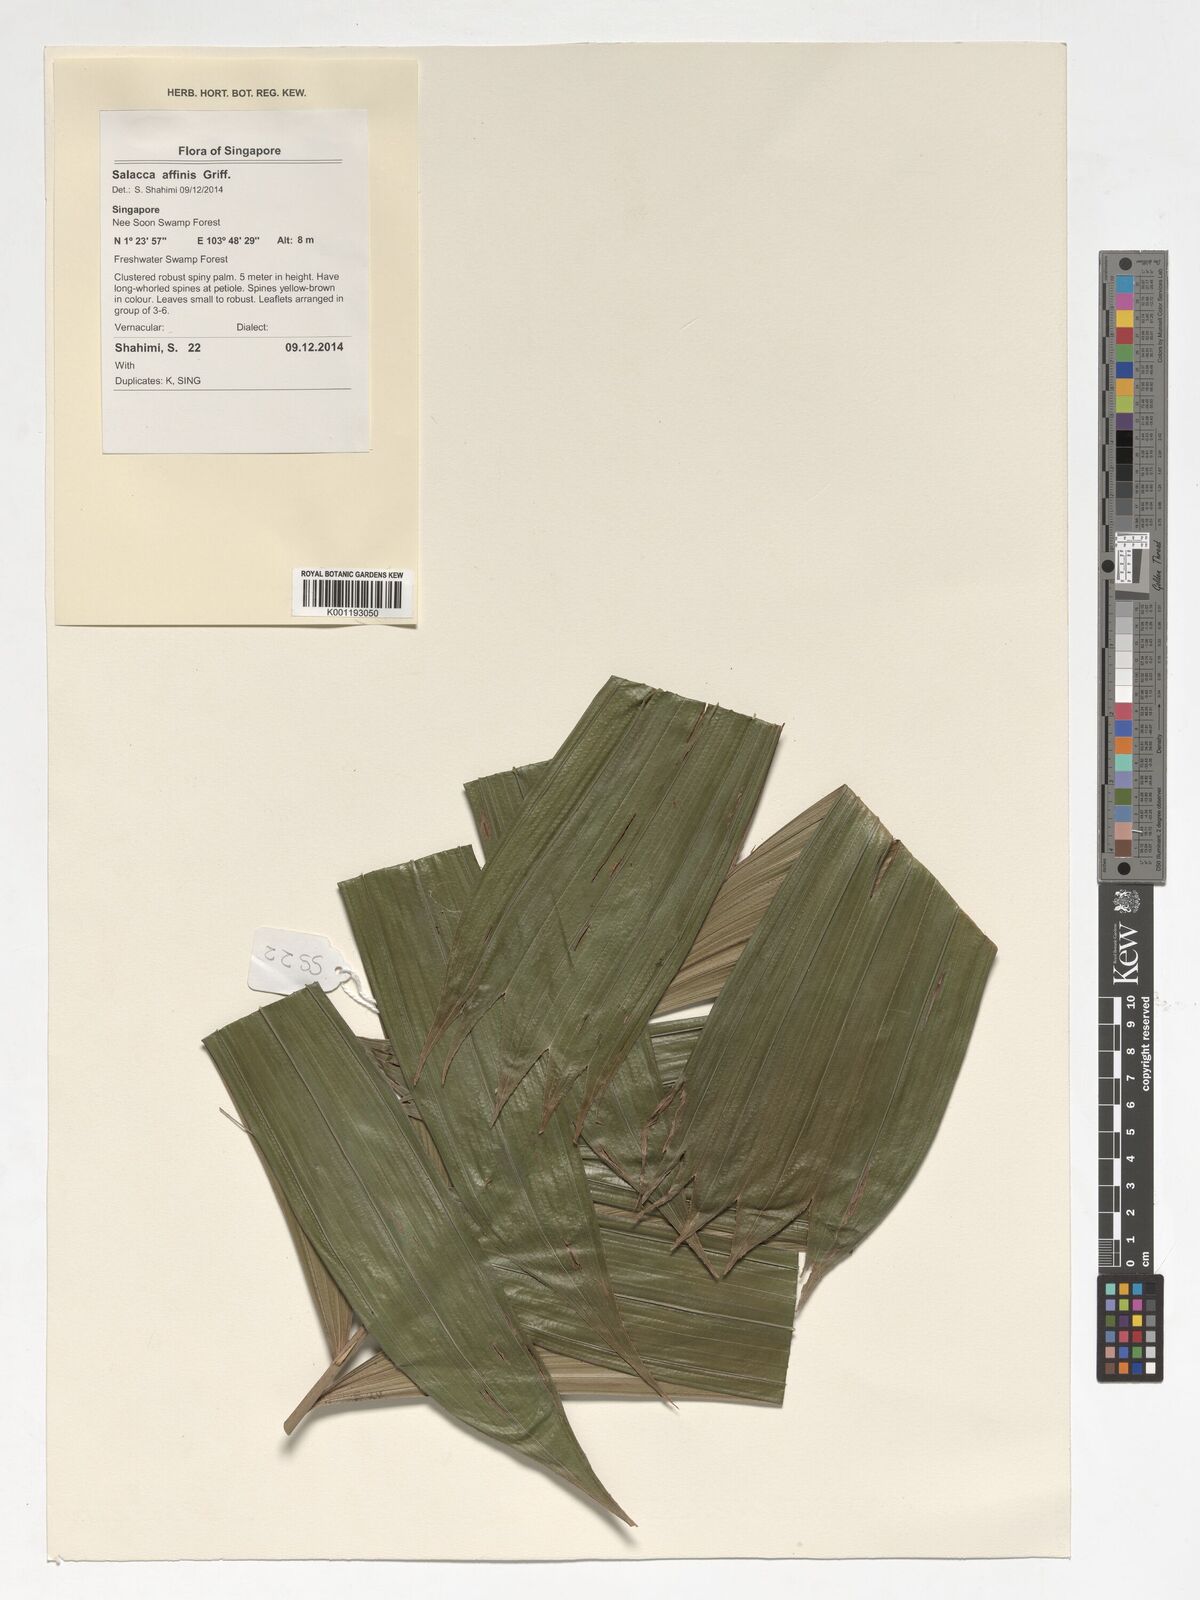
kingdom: Plantae
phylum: Tracheophyta
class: Liliopsida
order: Arecales
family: Arecaceae
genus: Salacca
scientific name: Salacca affinis
